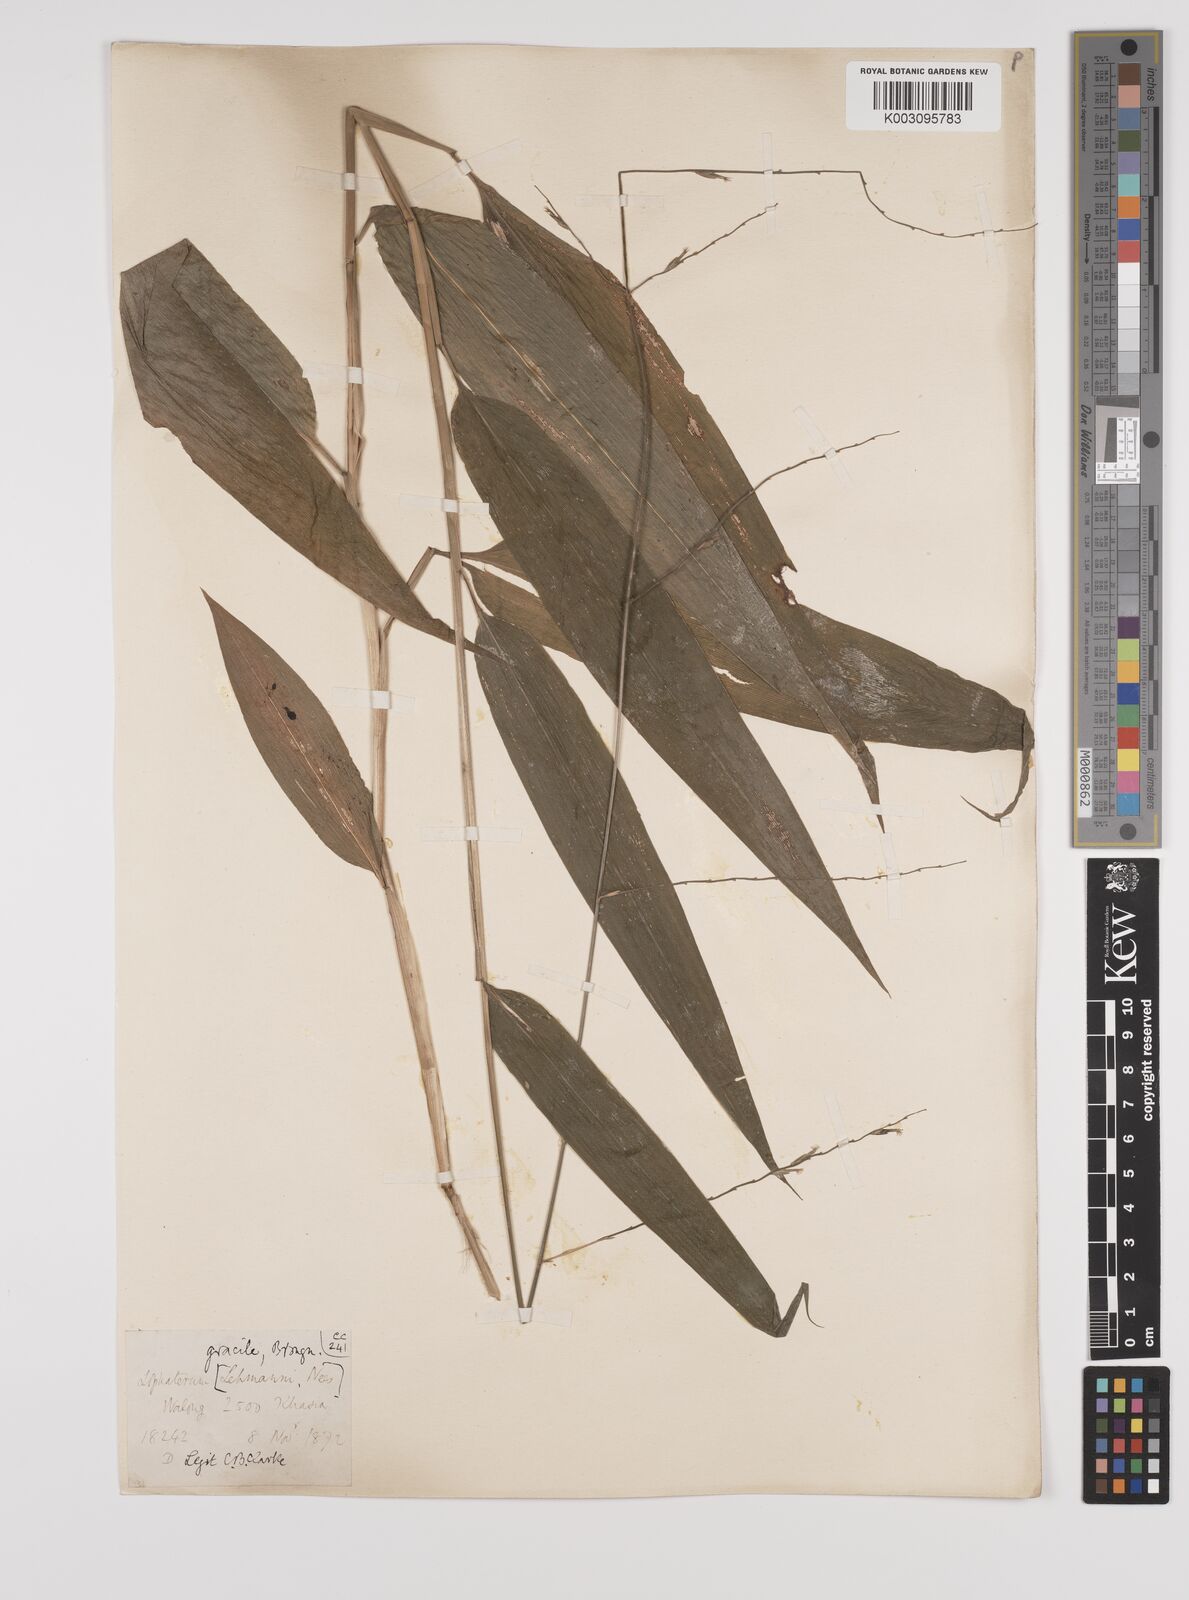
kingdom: Plantae
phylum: Tracheophyta
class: Liliopsida
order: Poales
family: Poaceae
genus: Lophatherum
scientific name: Lophatherum gracile
